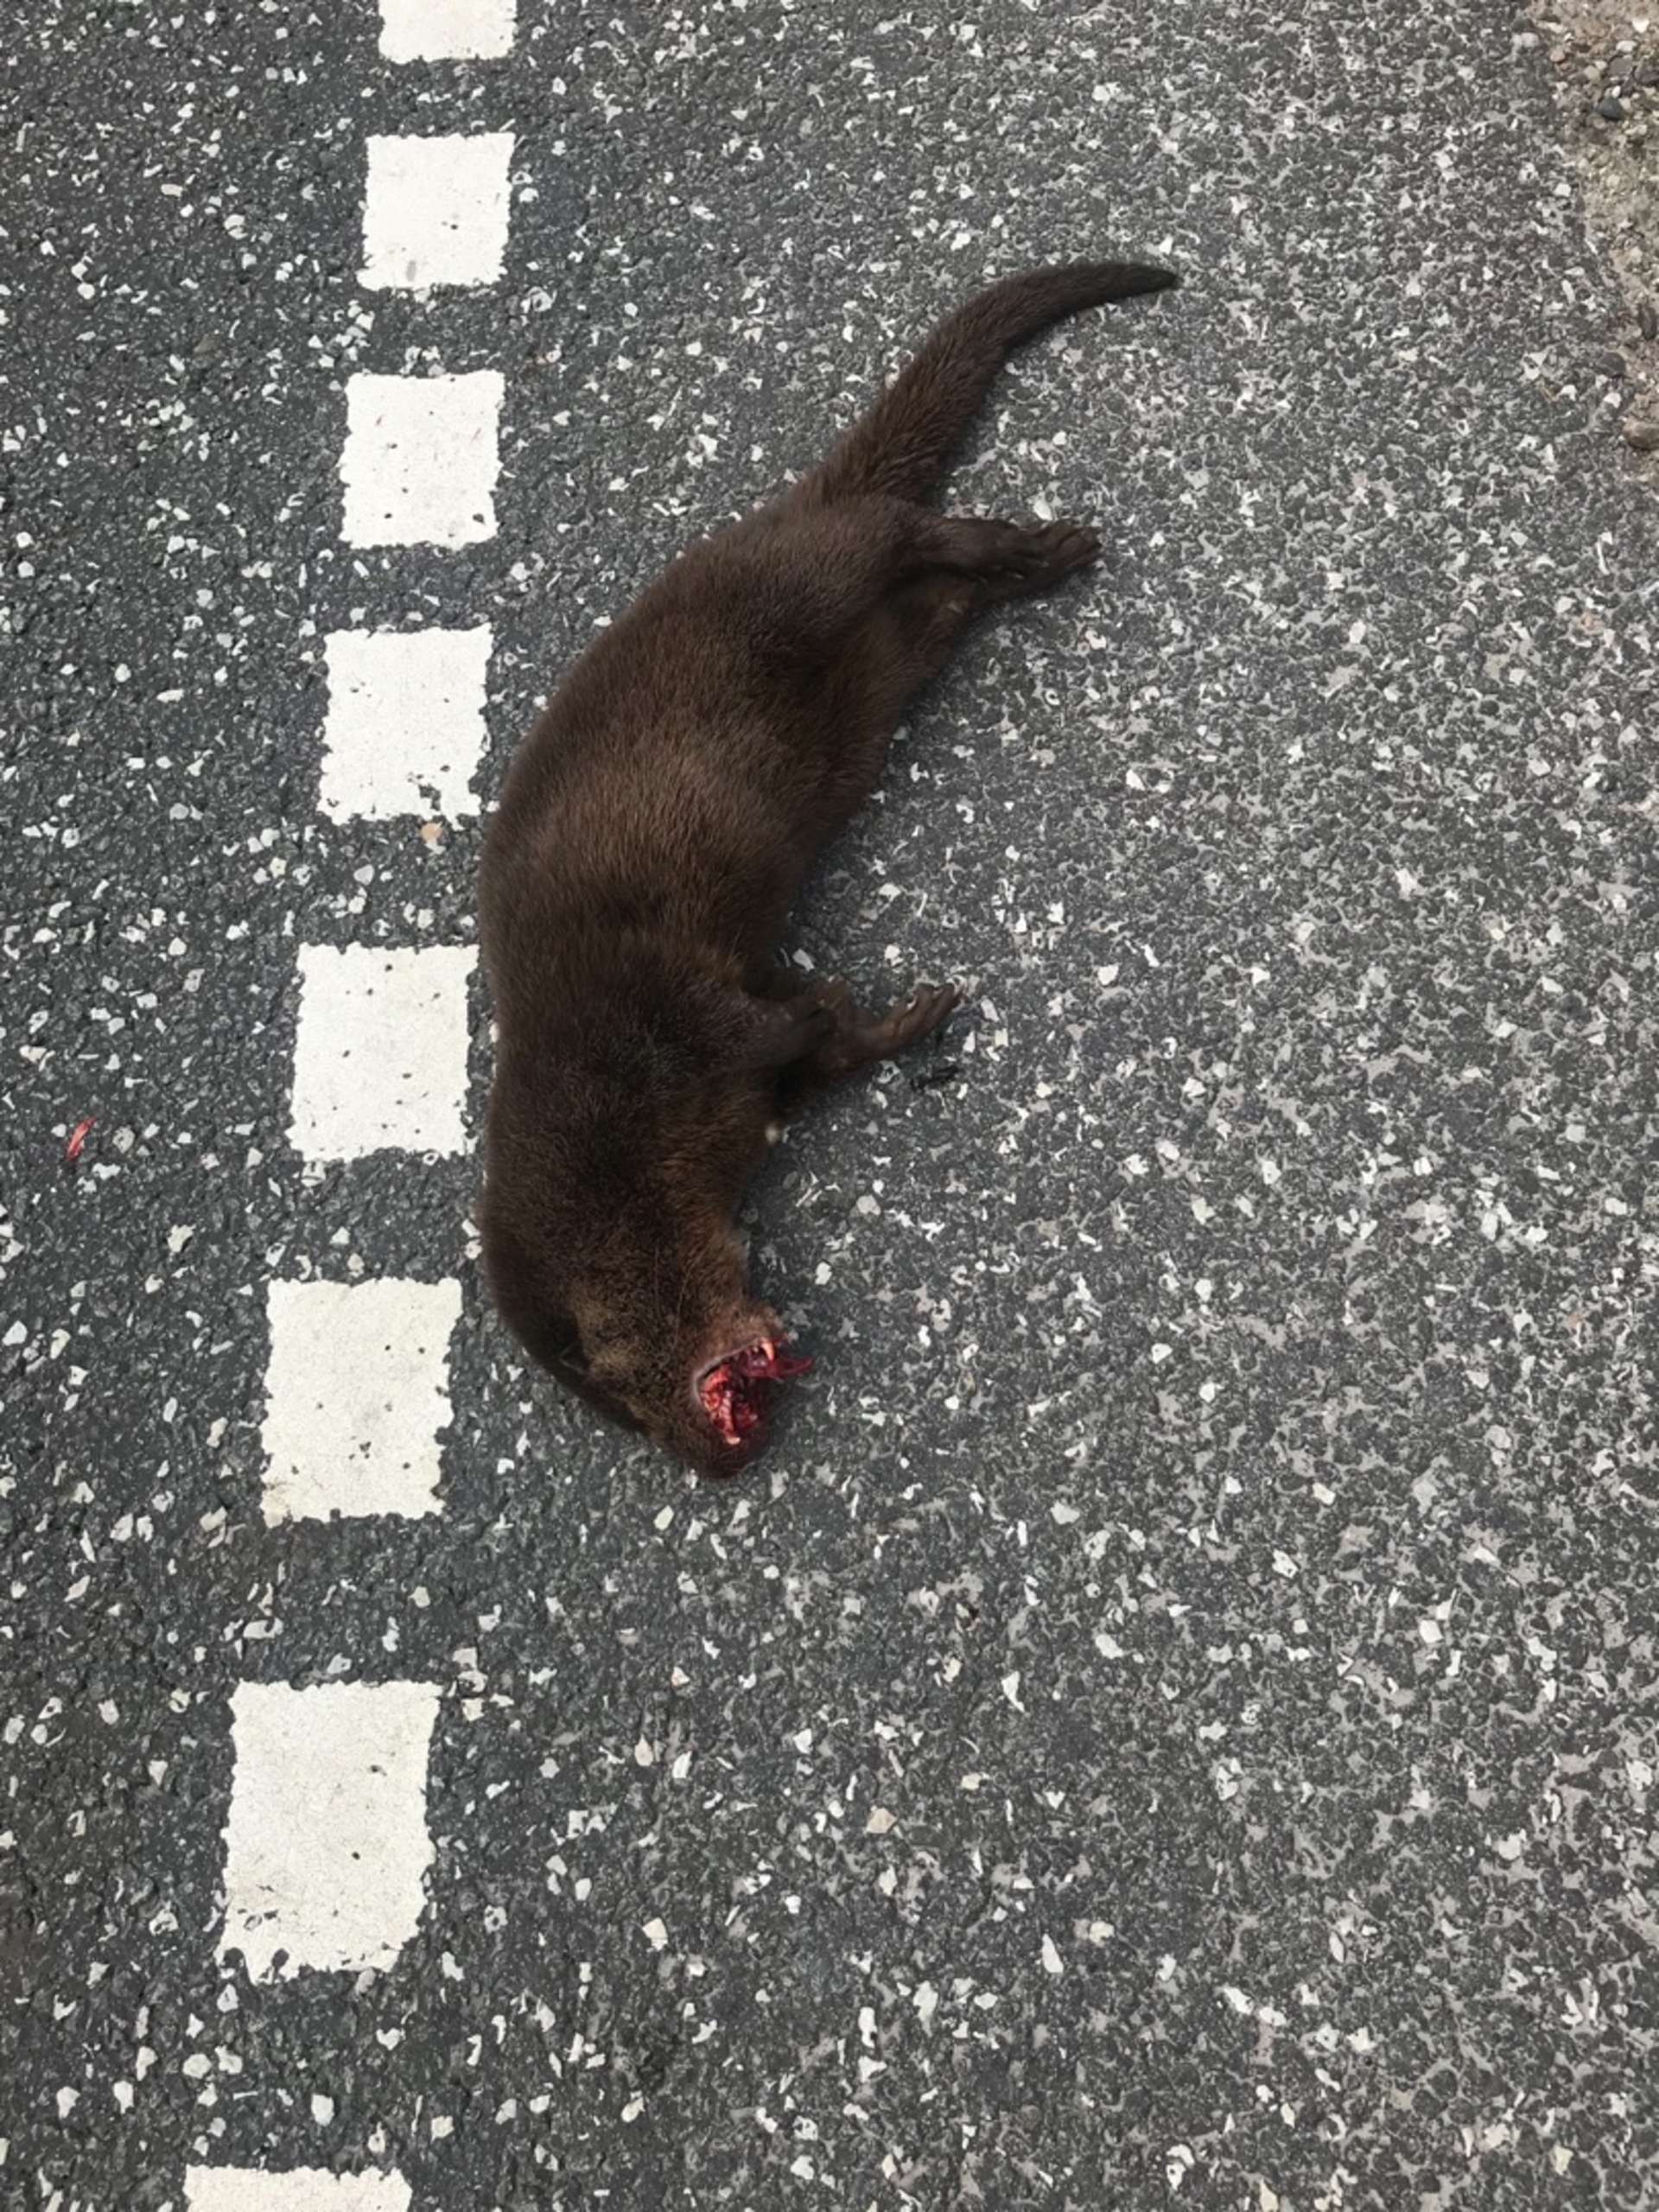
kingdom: Animalia
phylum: Chordata
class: Mammalia
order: Carnivora
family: Mustelidae
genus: Lutra
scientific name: Lutra lutra
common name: Odder
